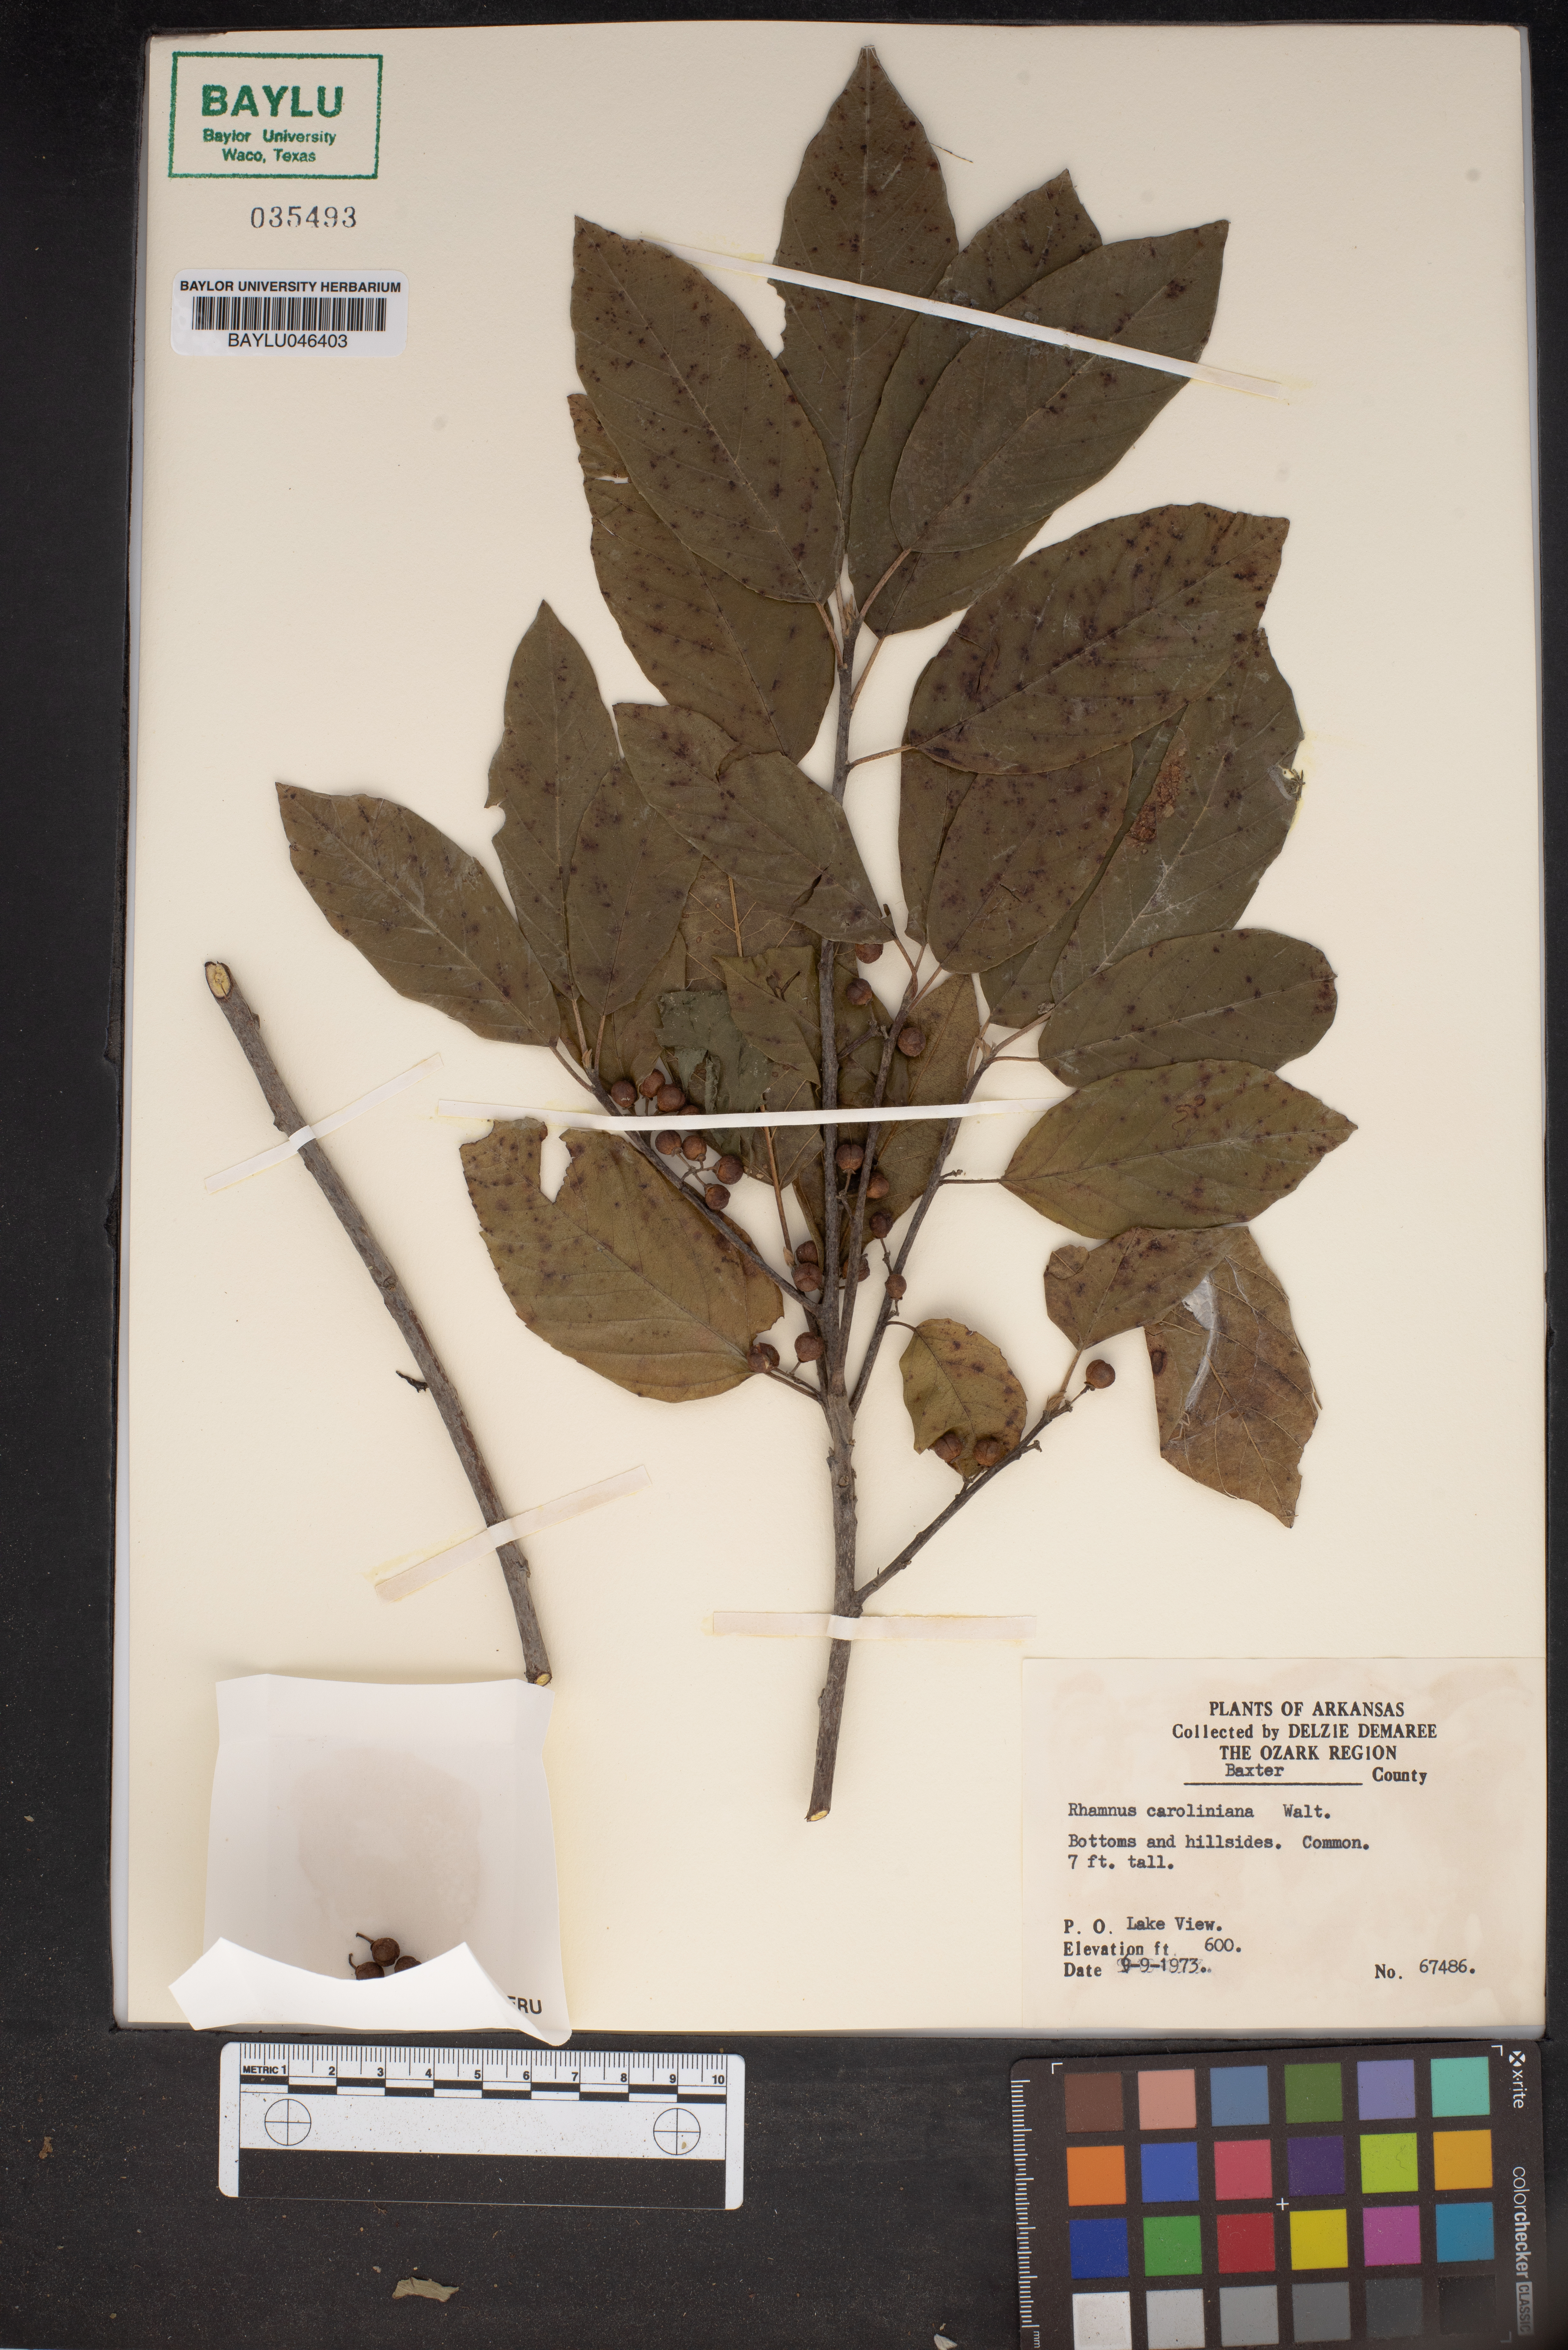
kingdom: Plantae
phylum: Tracheophyta
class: Magnoliopsida
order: Rosales
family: Rhamnaceae
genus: Frangula
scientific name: Frangula caroliniana
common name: Carolina buckthorn
